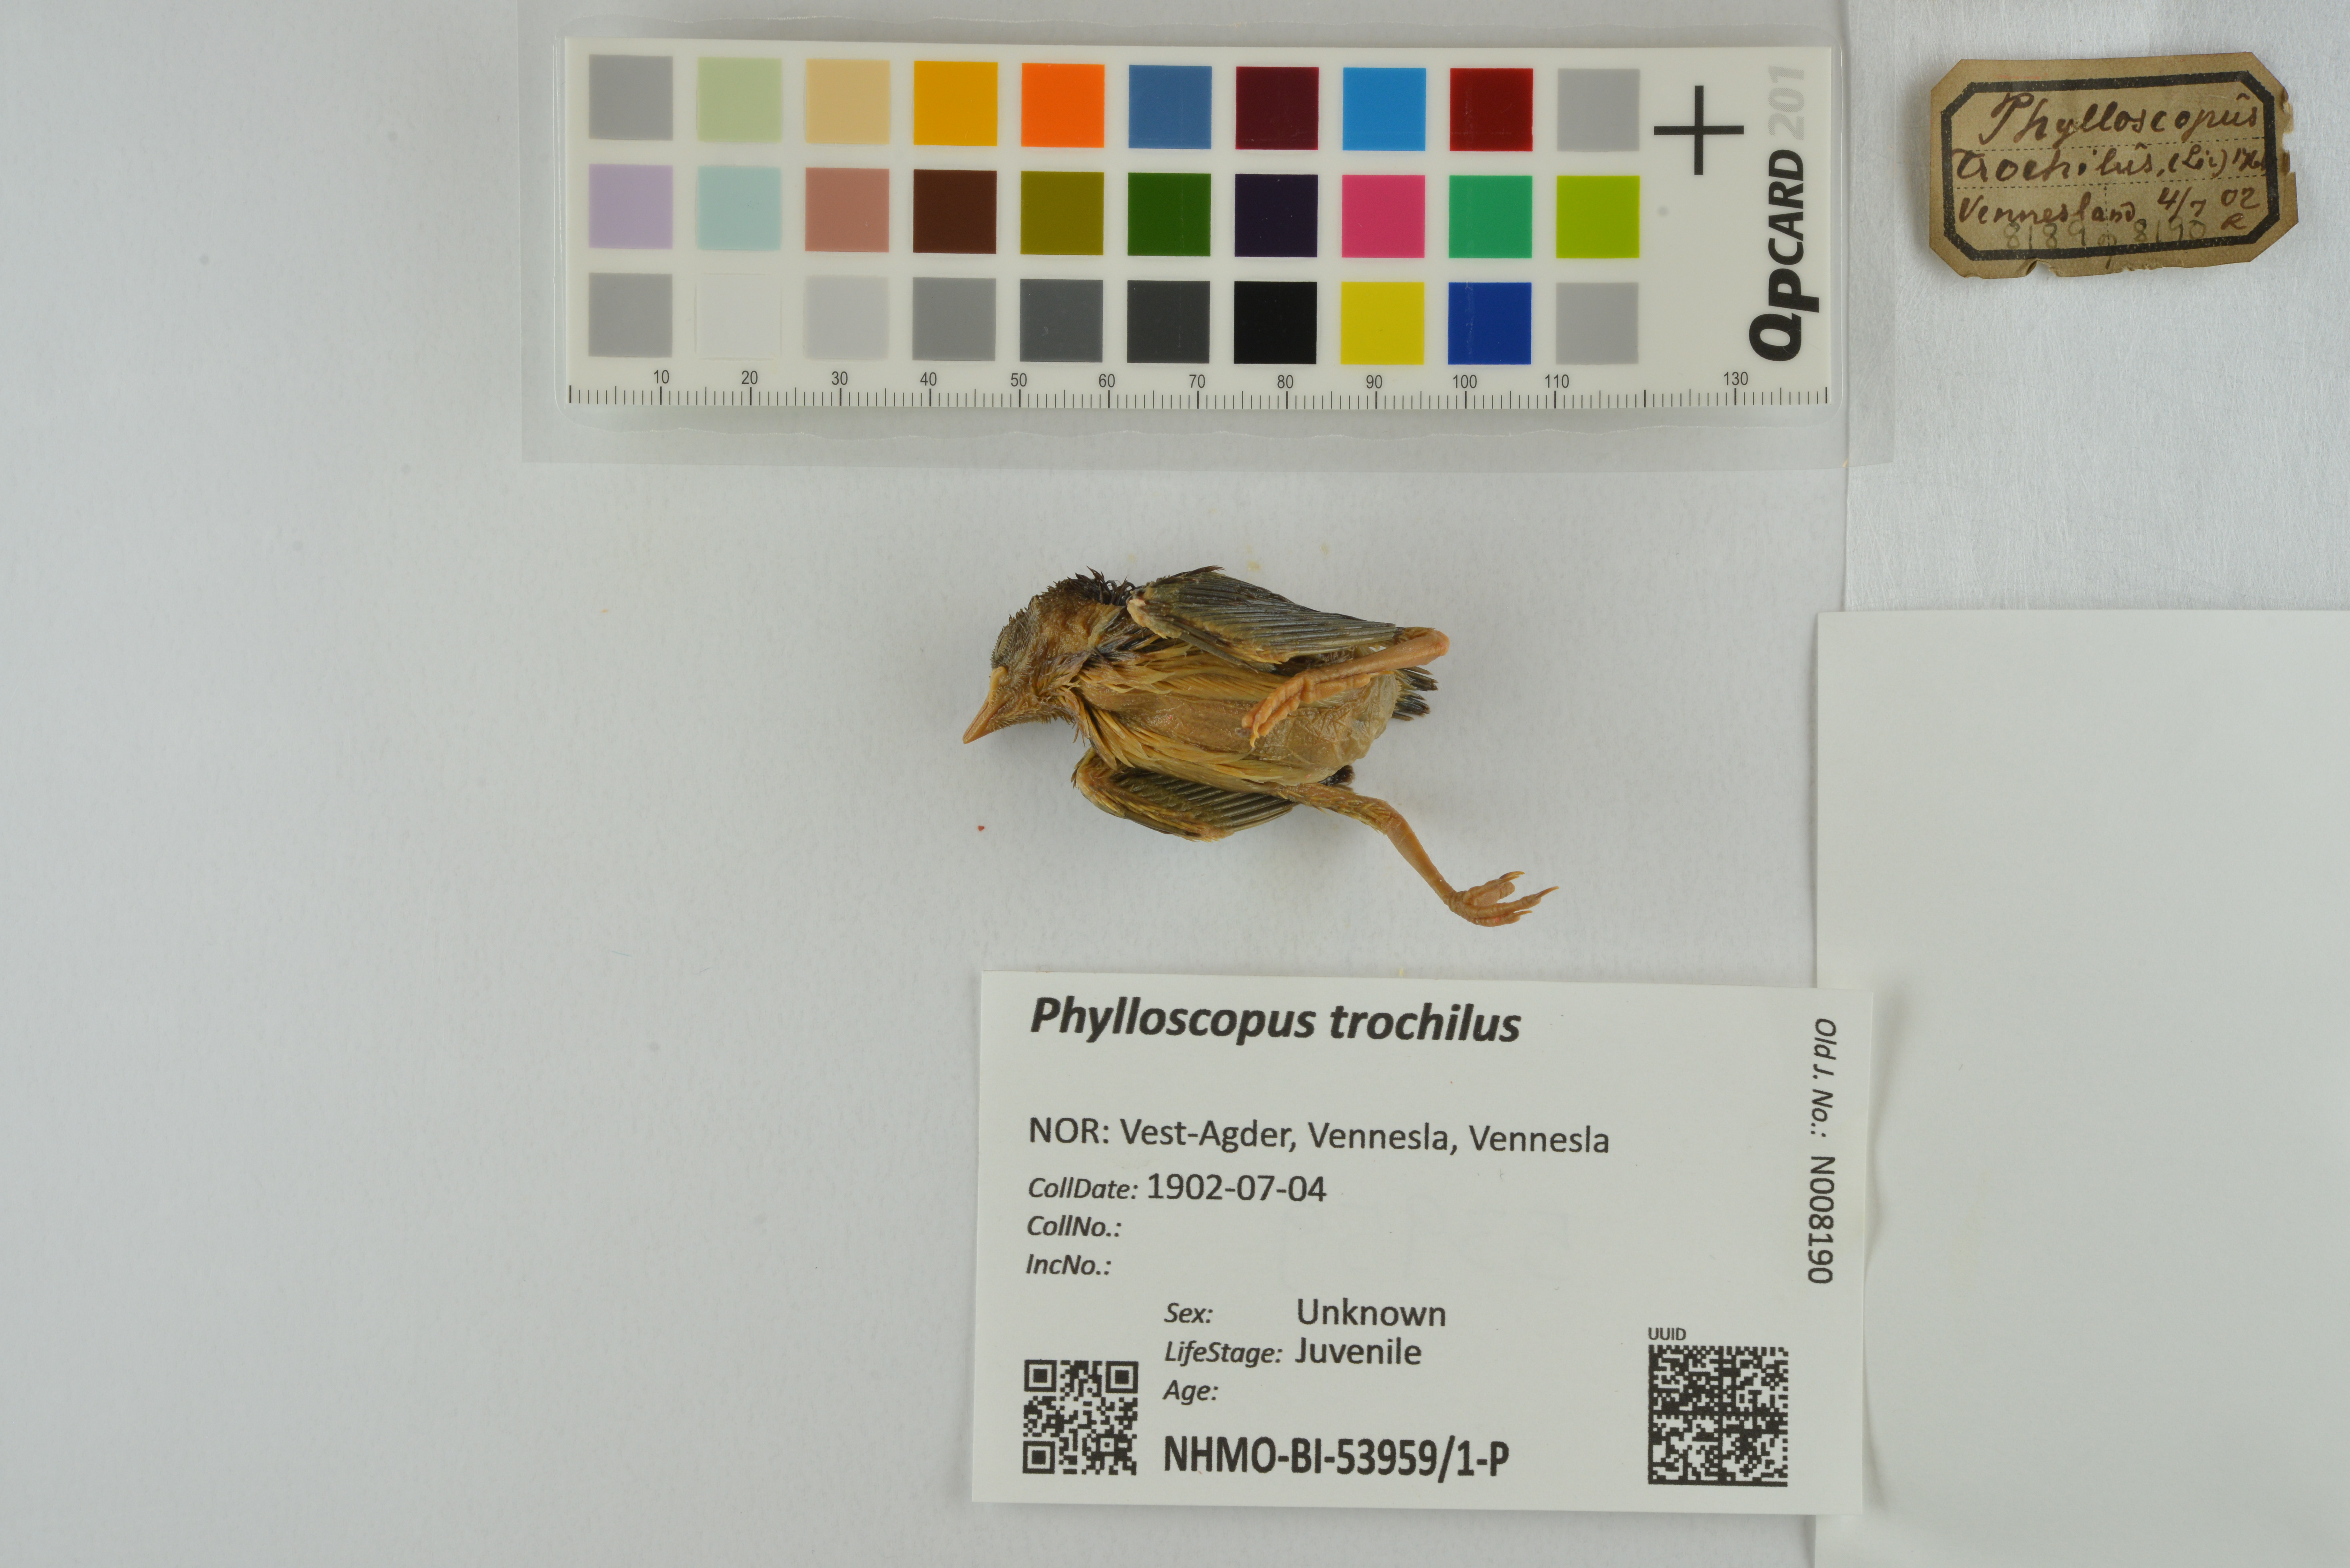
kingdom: Animalia
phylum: Chordata
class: Aves
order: Passeriformes
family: Phylloscopidae
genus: Phylloscopus
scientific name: Phylloscopus trochilus
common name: Willow warbler
